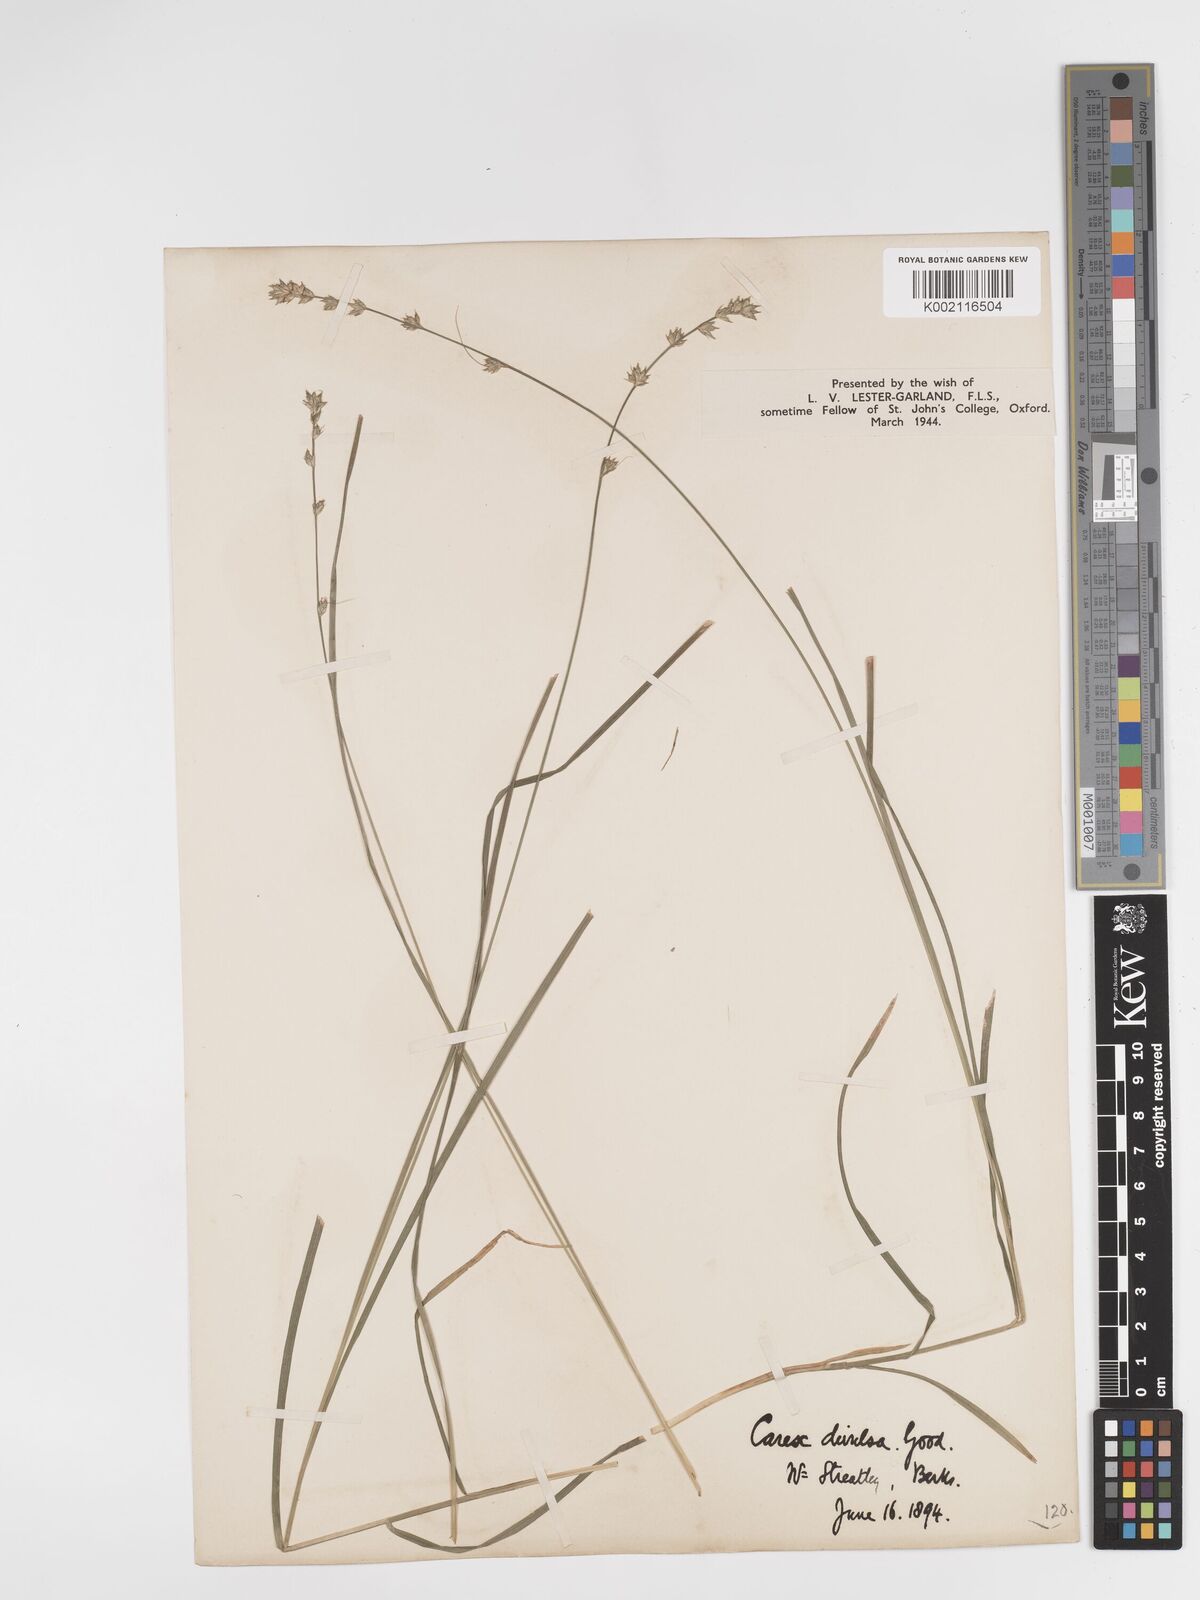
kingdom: Plantae
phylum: Tracheophyta
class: Liliopsida
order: Poales
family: Cyperaceae
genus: Carex
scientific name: Carex divulsa
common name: Grassland sedge
